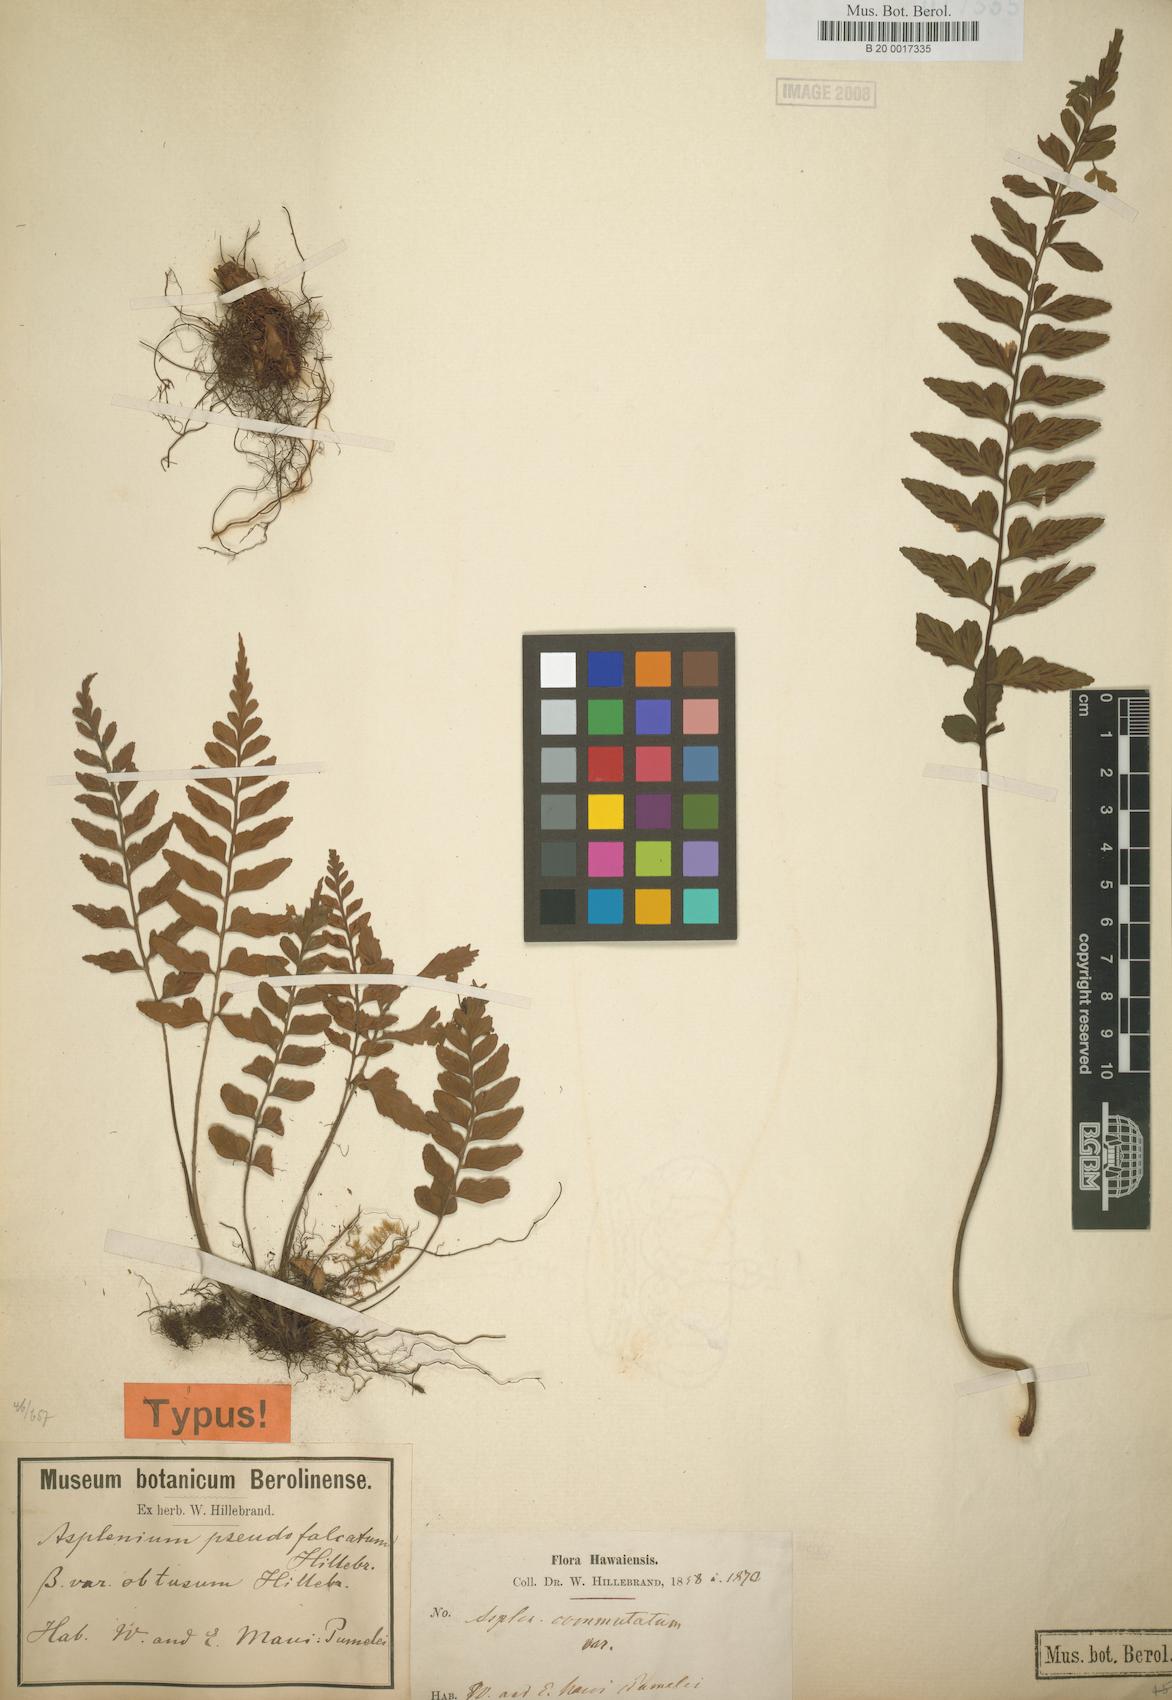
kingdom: Plantae
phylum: Tracheophyta
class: Polypodiopsida
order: Polypodiales
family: Aspleniaceae
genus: Asplenium
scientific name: Asplenium lobulatum
